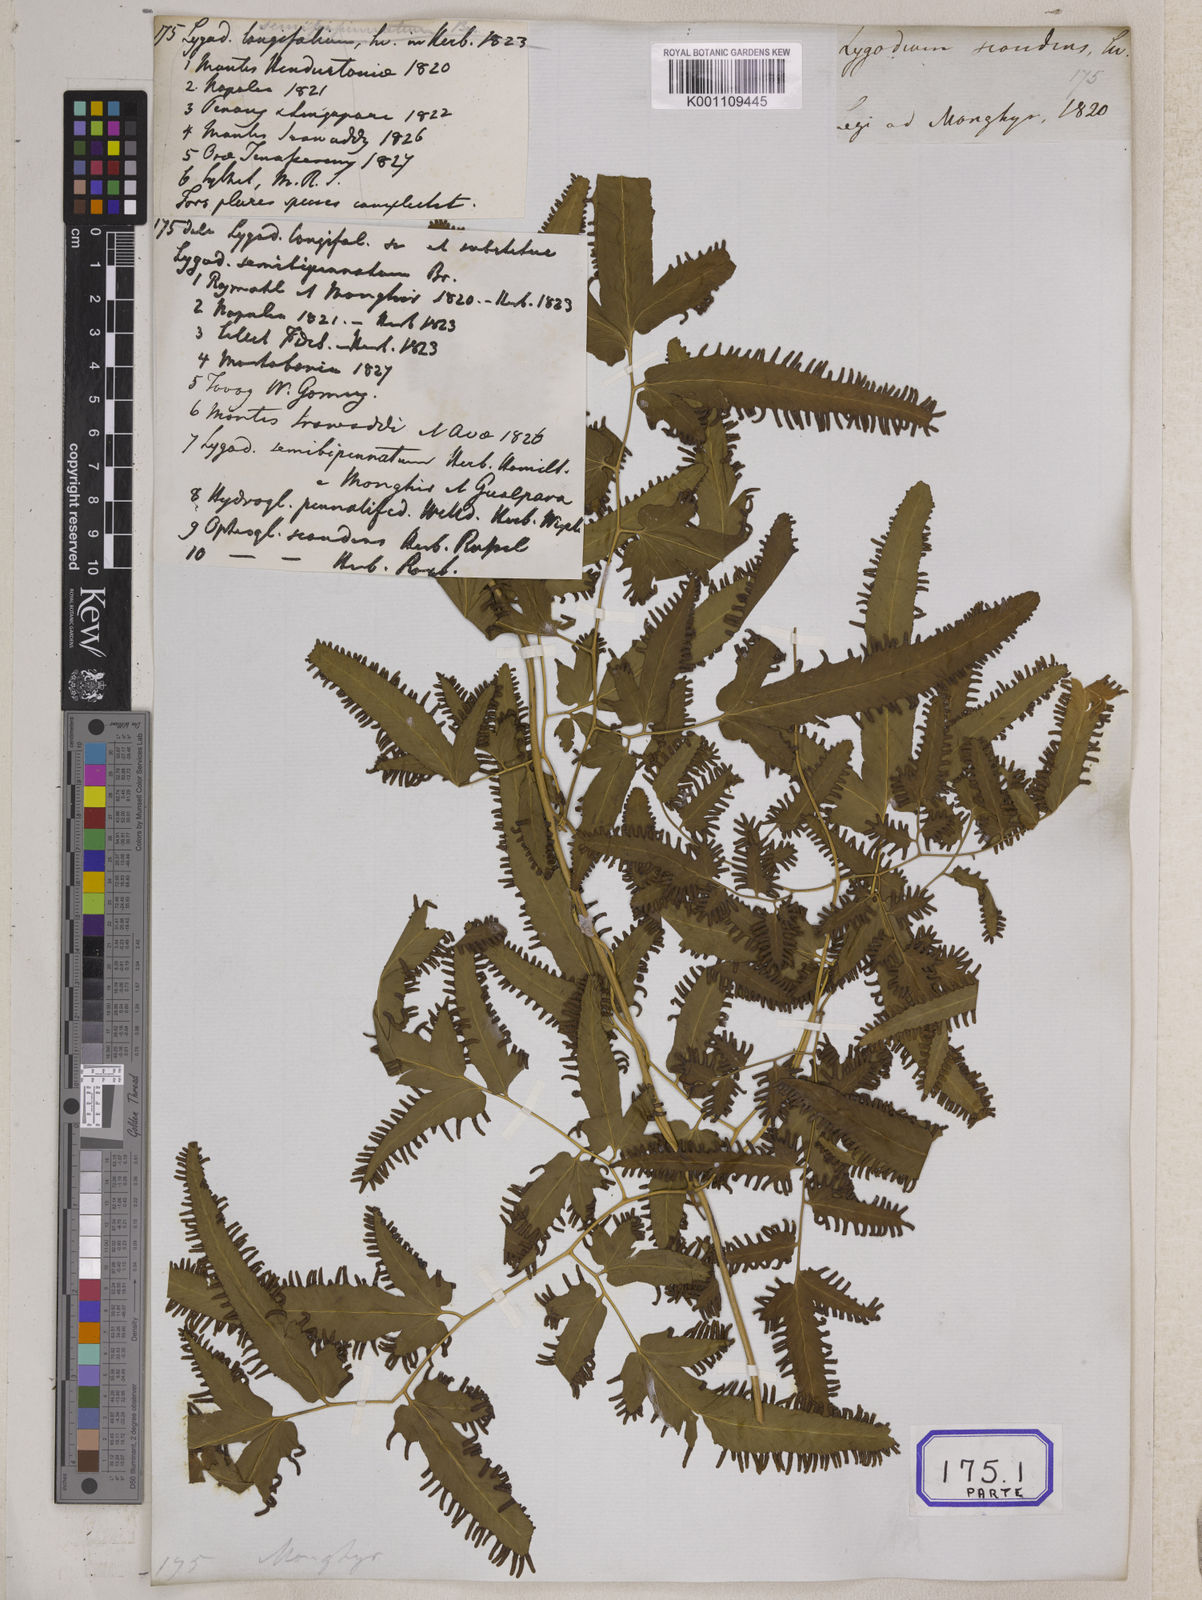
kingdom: Plantae
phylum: Tracheophyta
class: Polypodiopsida
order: Schizaeales
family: Lygodiaceae
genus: Lygodium
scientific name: Lygodium flexuosum
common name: Maidenhair creeper
